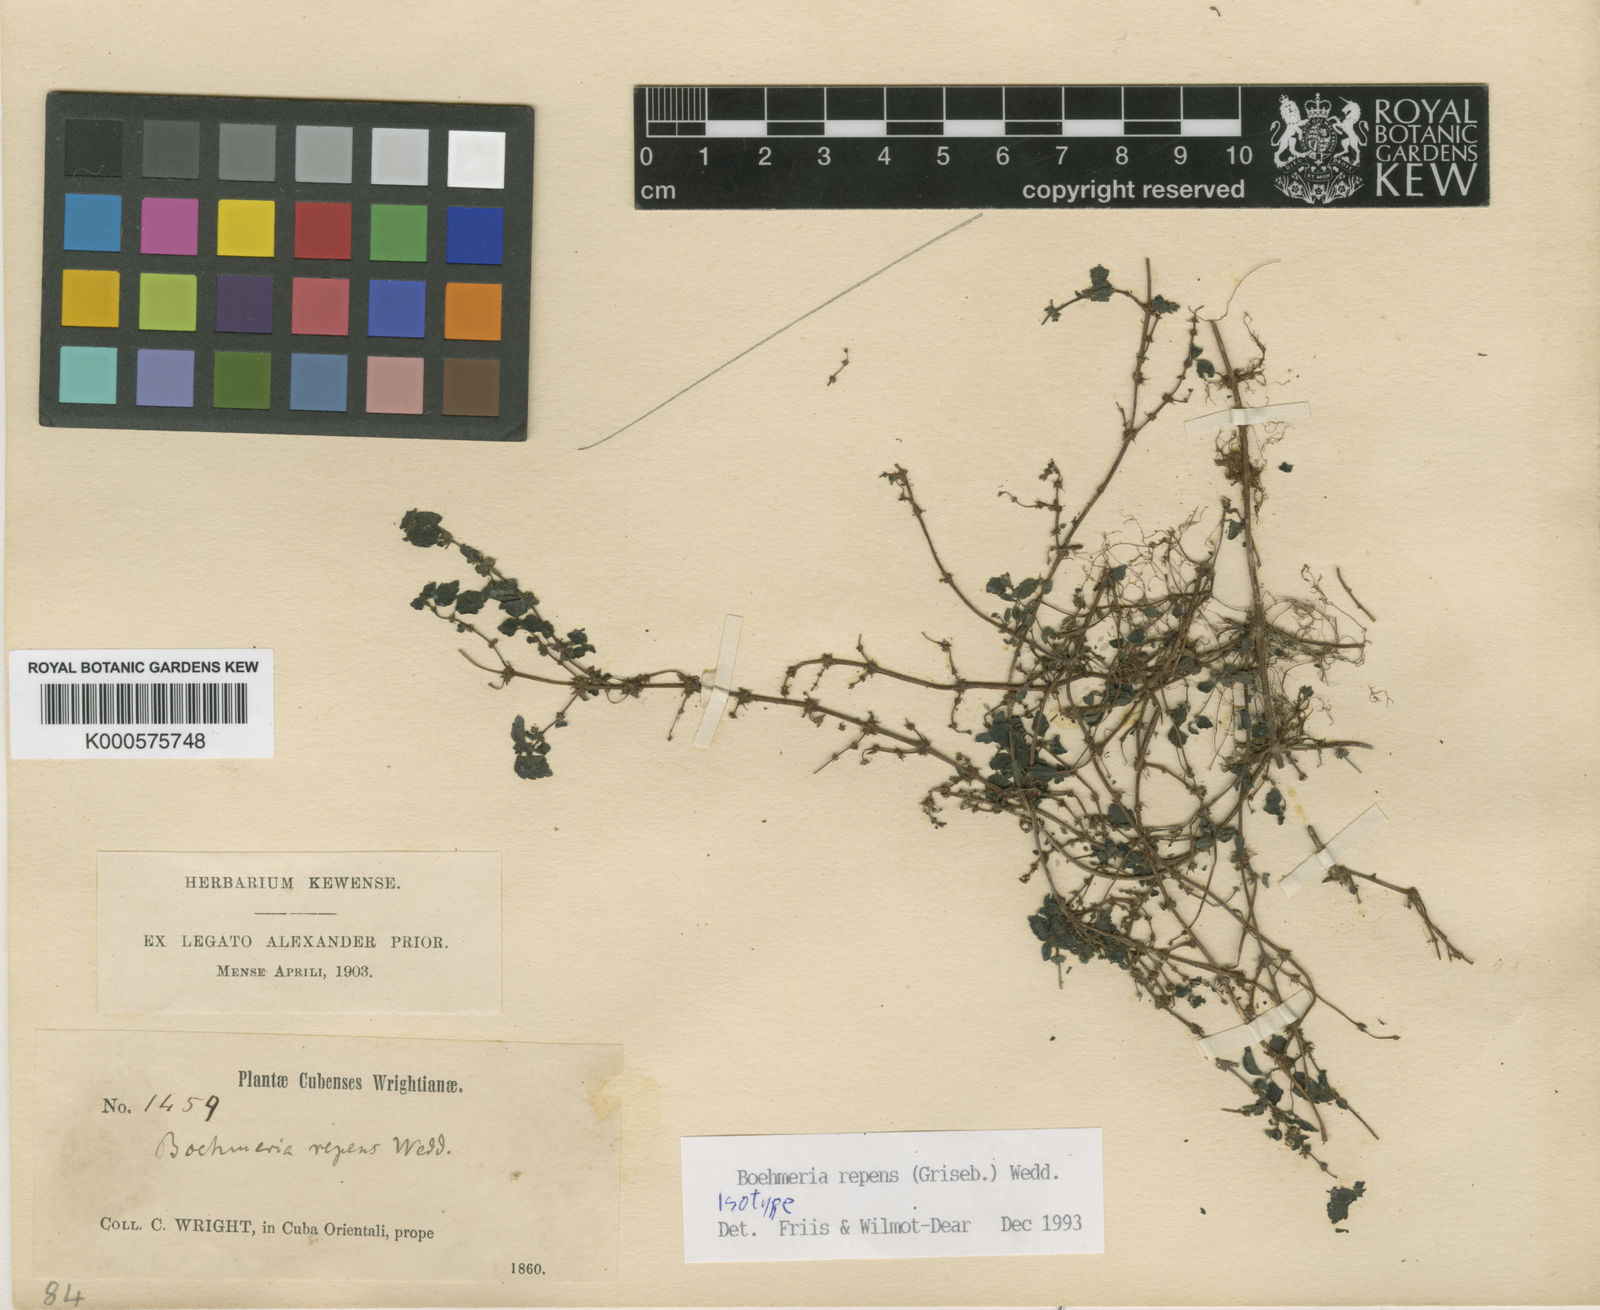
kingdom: Plantae
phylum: Tracheophyta
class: Magnoliopsida
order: Rosales
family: Urticaceae
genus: Boehmeria
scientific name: Boehmeria repens
